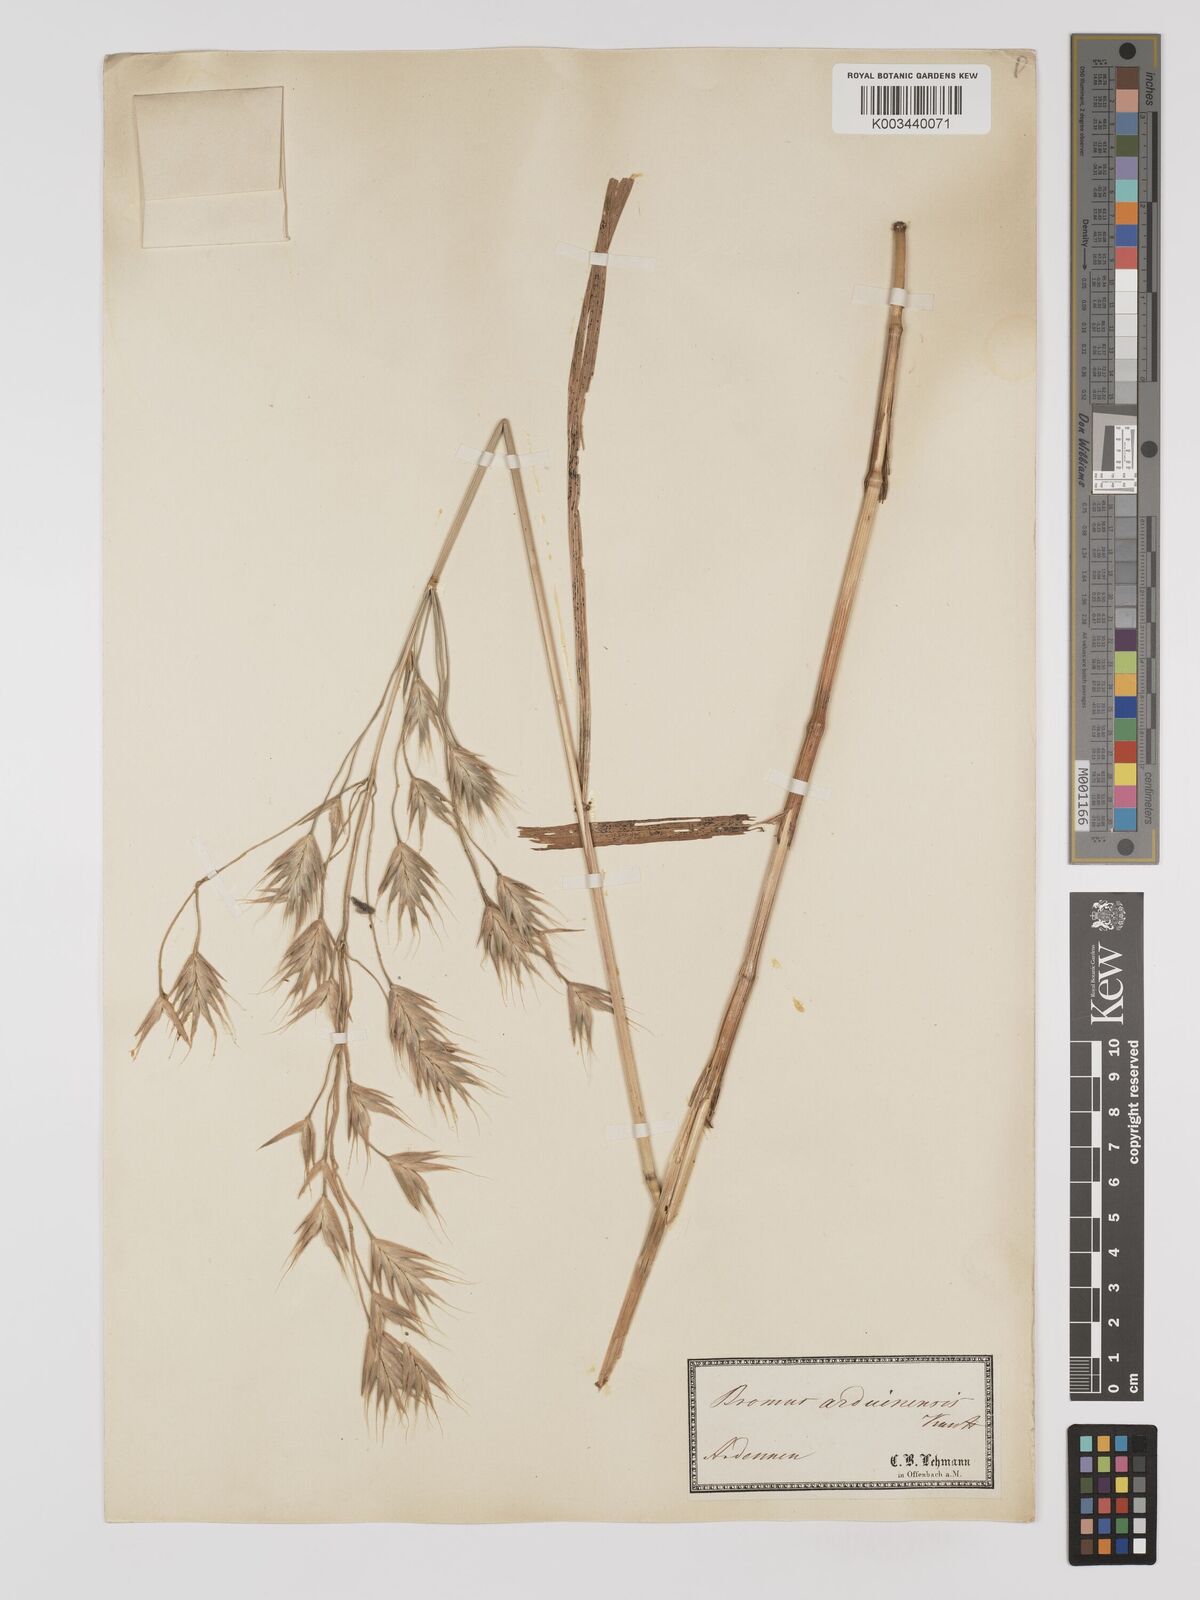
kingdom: Plantae
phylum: Tracheophyta
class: Liliopsida
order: Poales
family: Poaceae
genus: Bromus
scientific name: Bromus bromoideus
